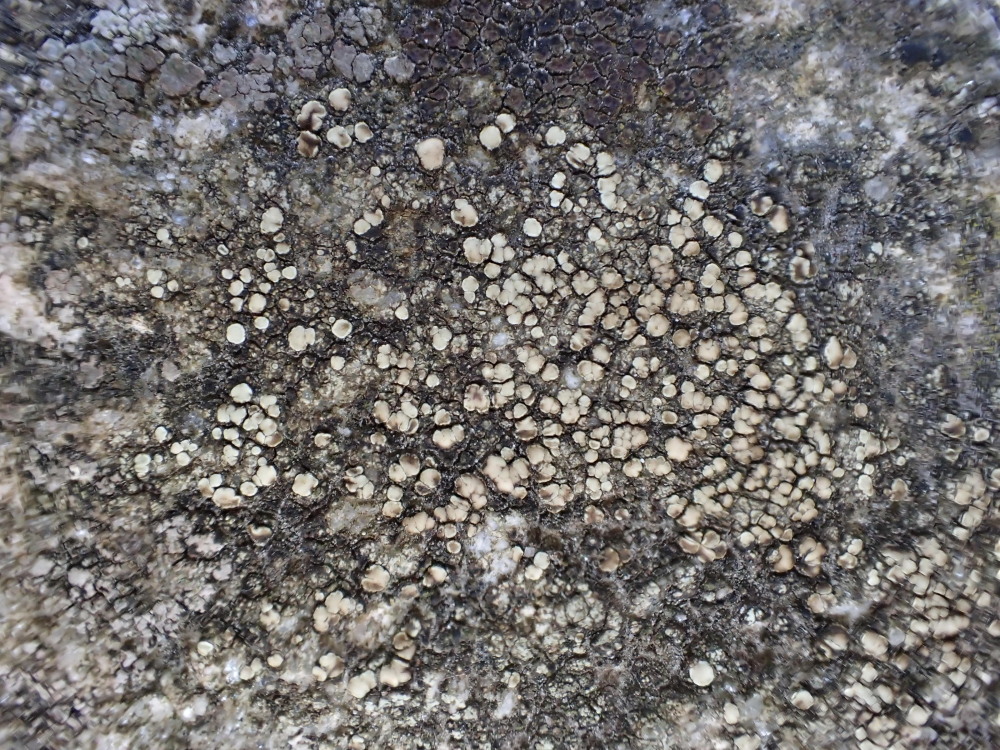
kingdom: Fungi
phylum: Ascomycota
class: Lecanoromycetes
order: Lecanorales
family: Lecanoraceae
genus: Lecanora
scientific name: Lecanora polytropa
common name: bleggrøn kantskivelav
